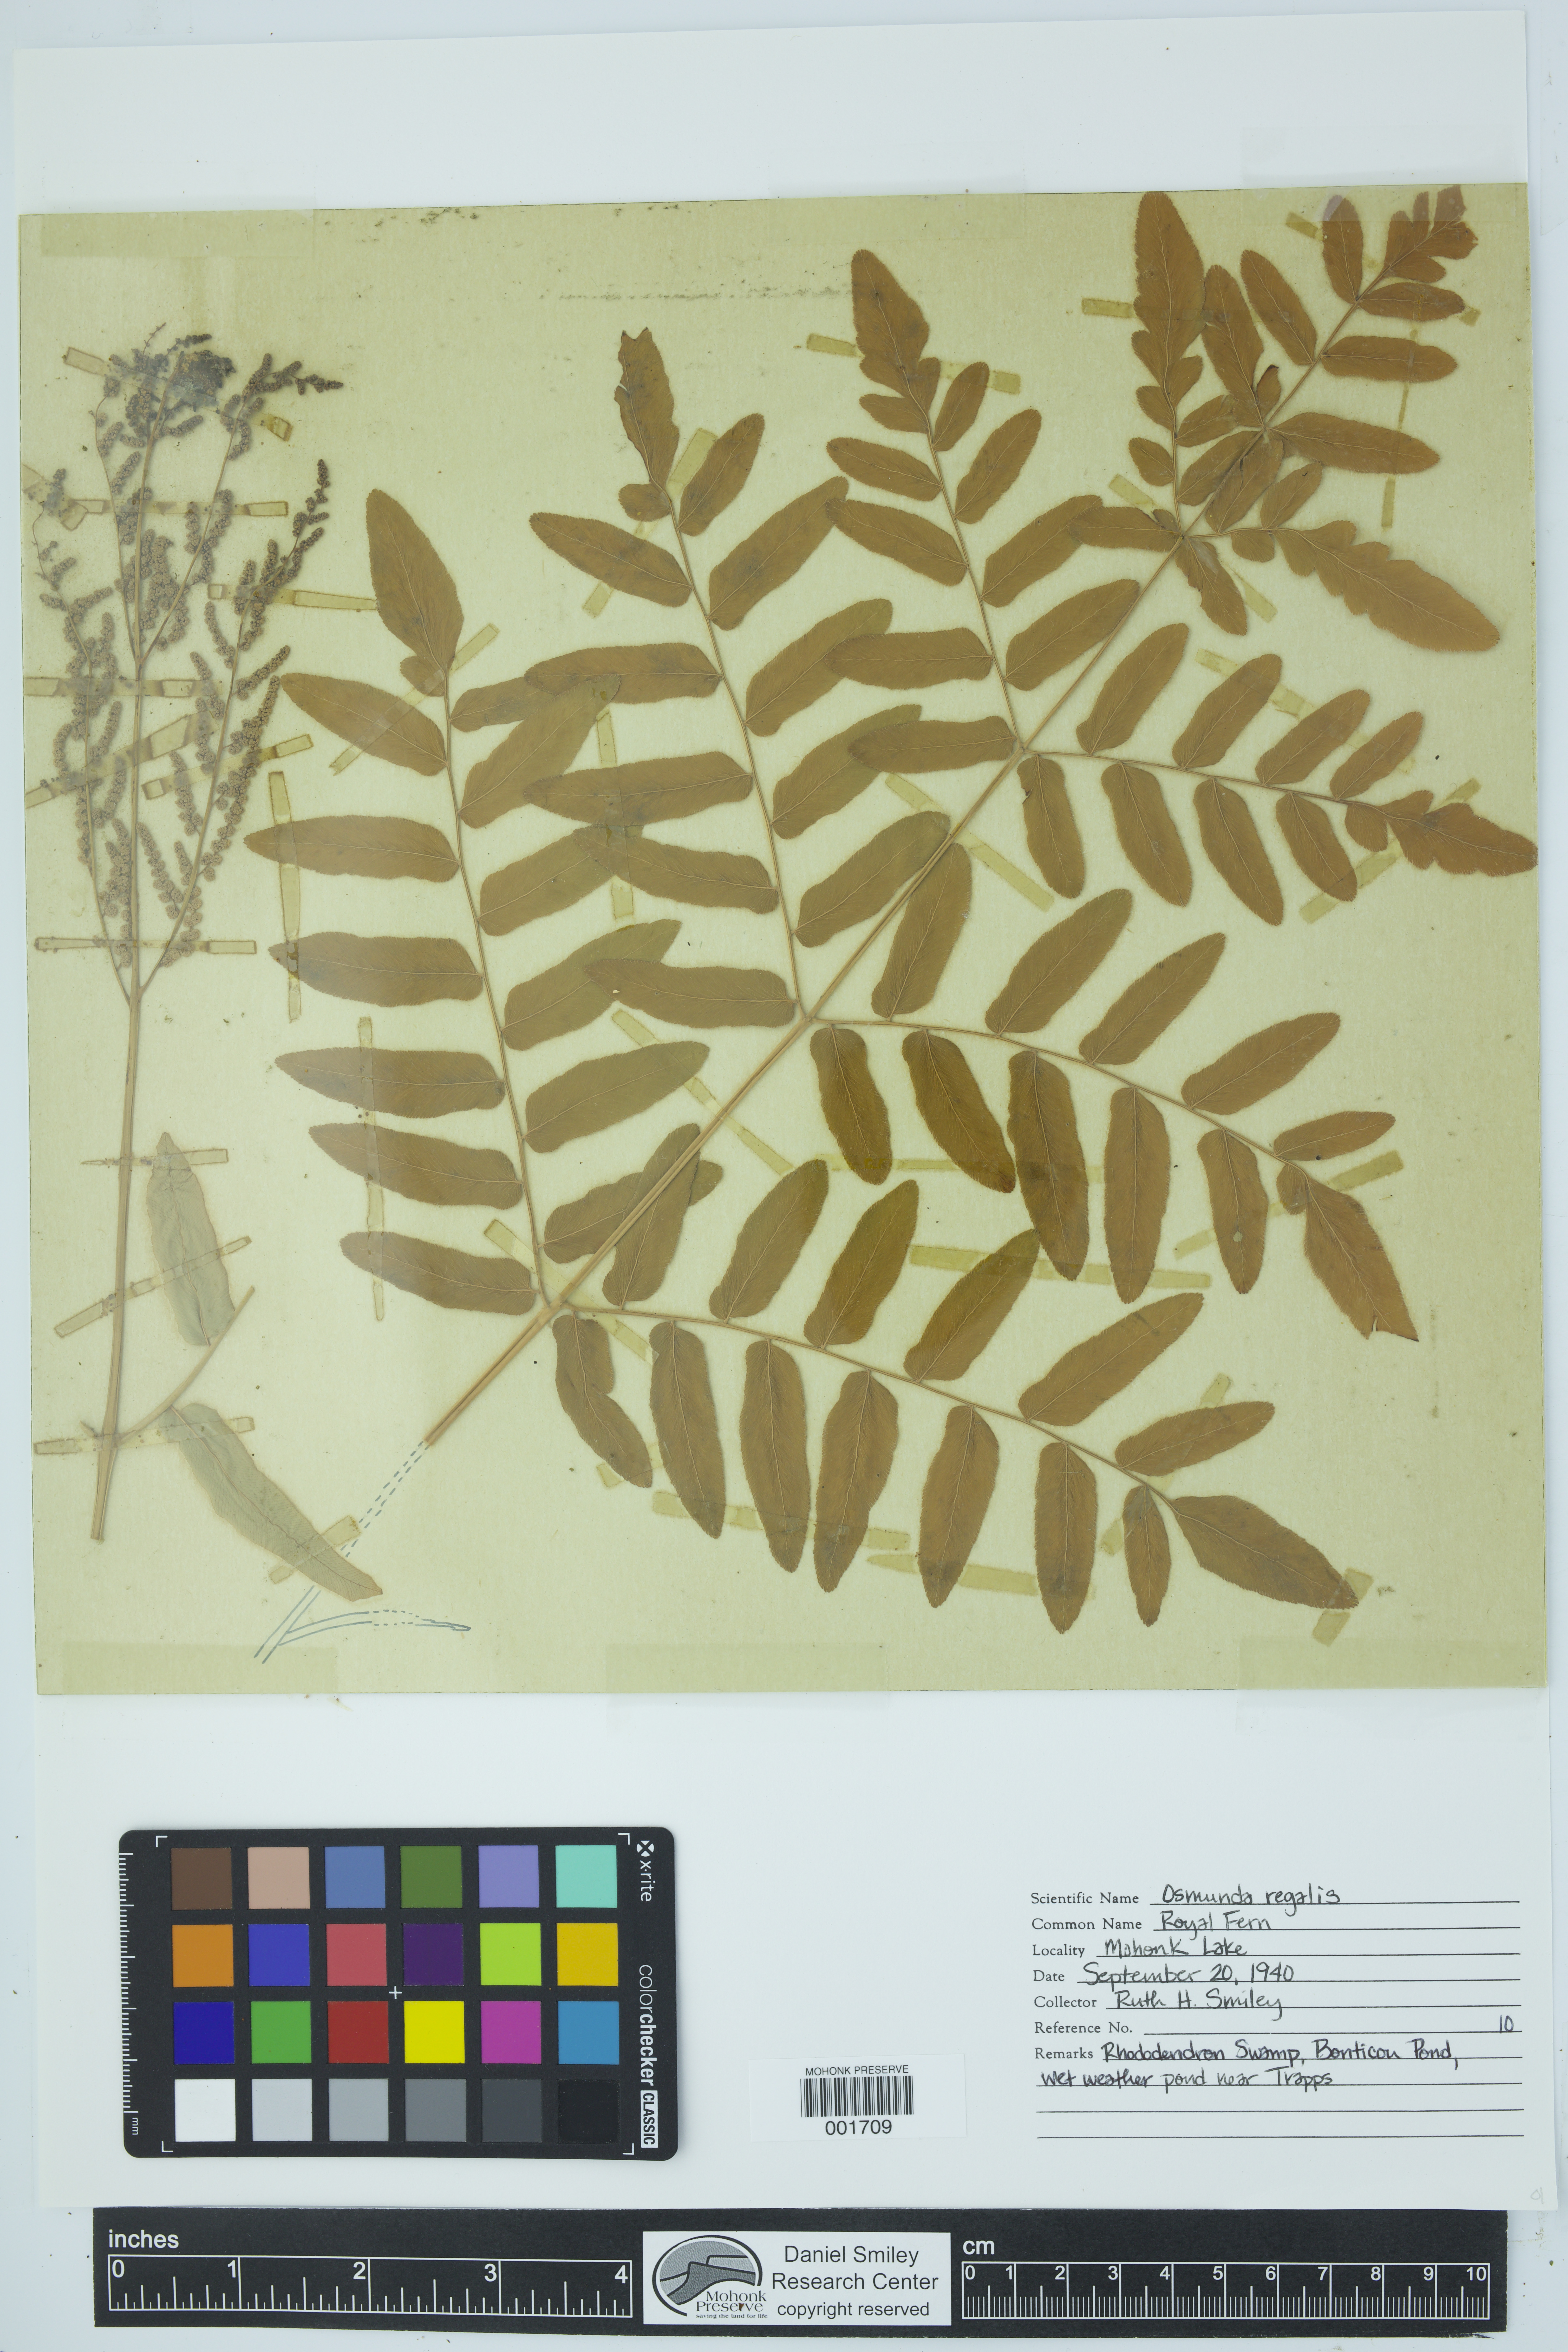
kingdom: Plantae
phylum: Tracheophyta
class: Polypodiopsida
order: Osmundales
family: Osmundaceae
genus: Osmunda
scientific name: Osmunda regalis
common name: Royal fern
